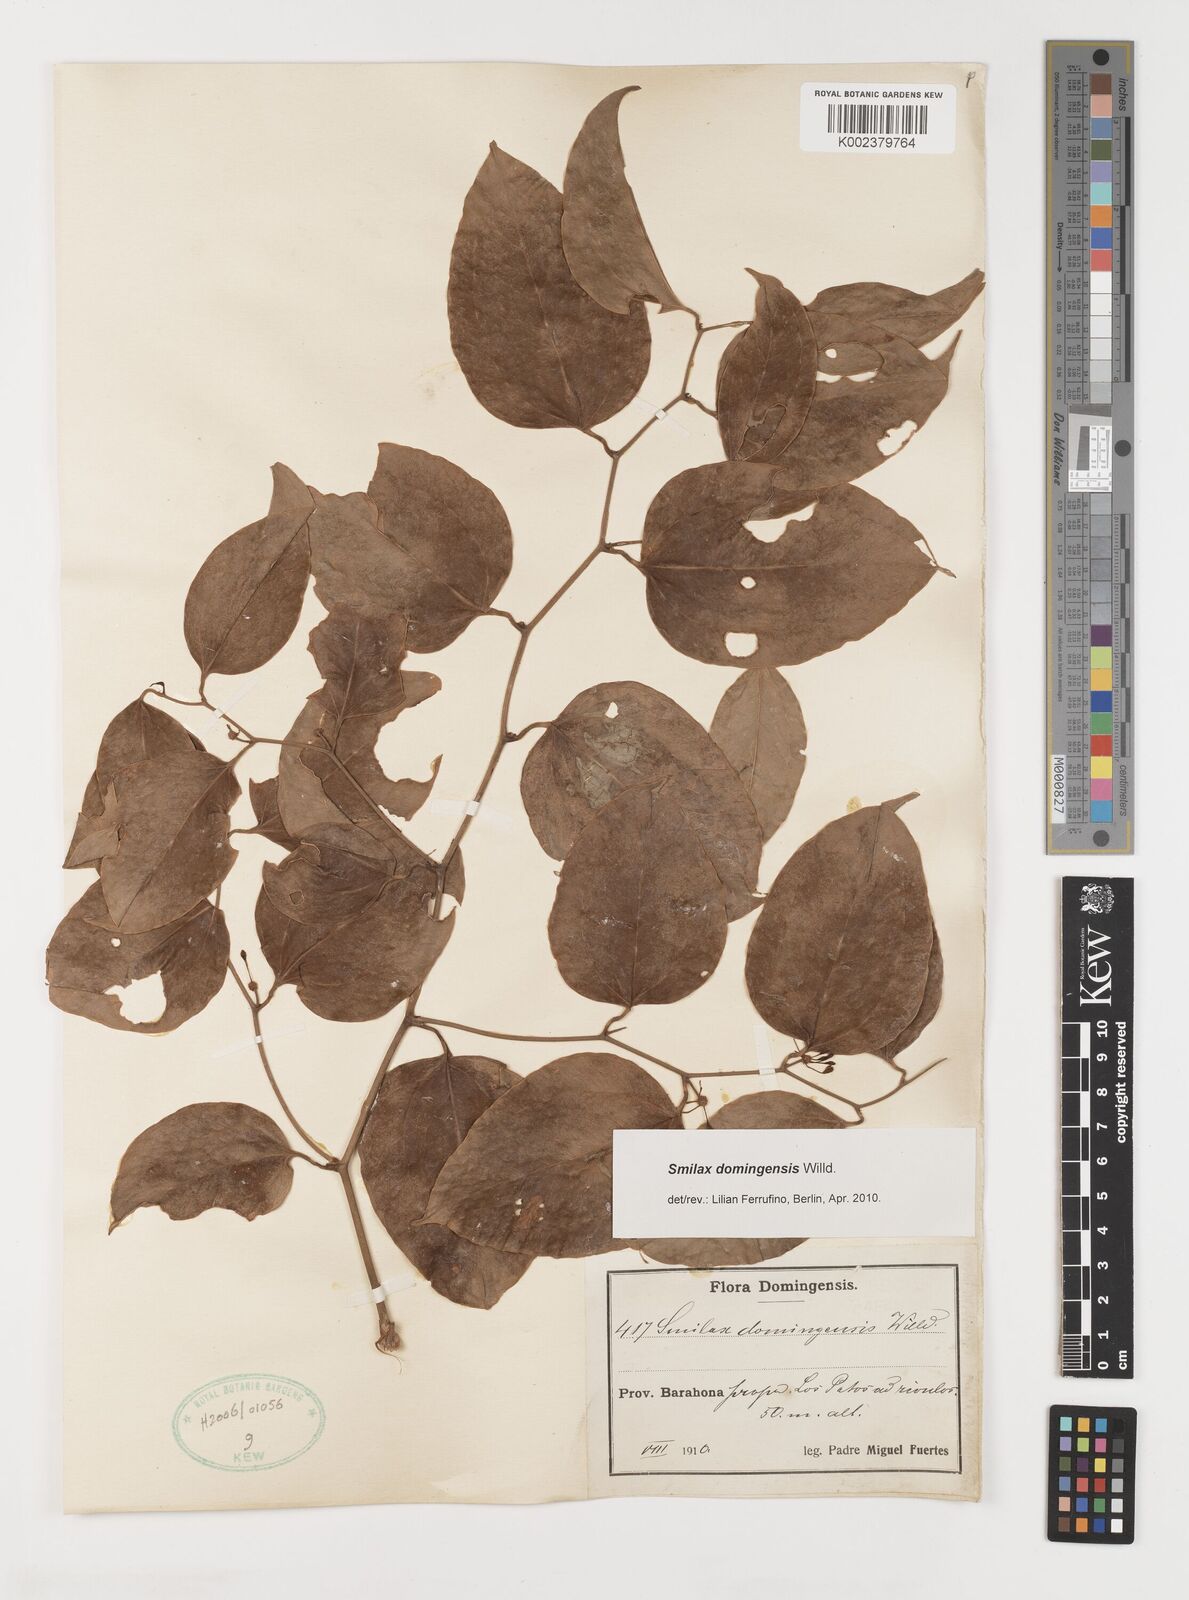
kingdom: Plantae
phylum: Tracheophyta
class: Liliopsida
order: Liliales
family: Smilacaceae
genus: Smilax
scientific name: Smilax domingensis
